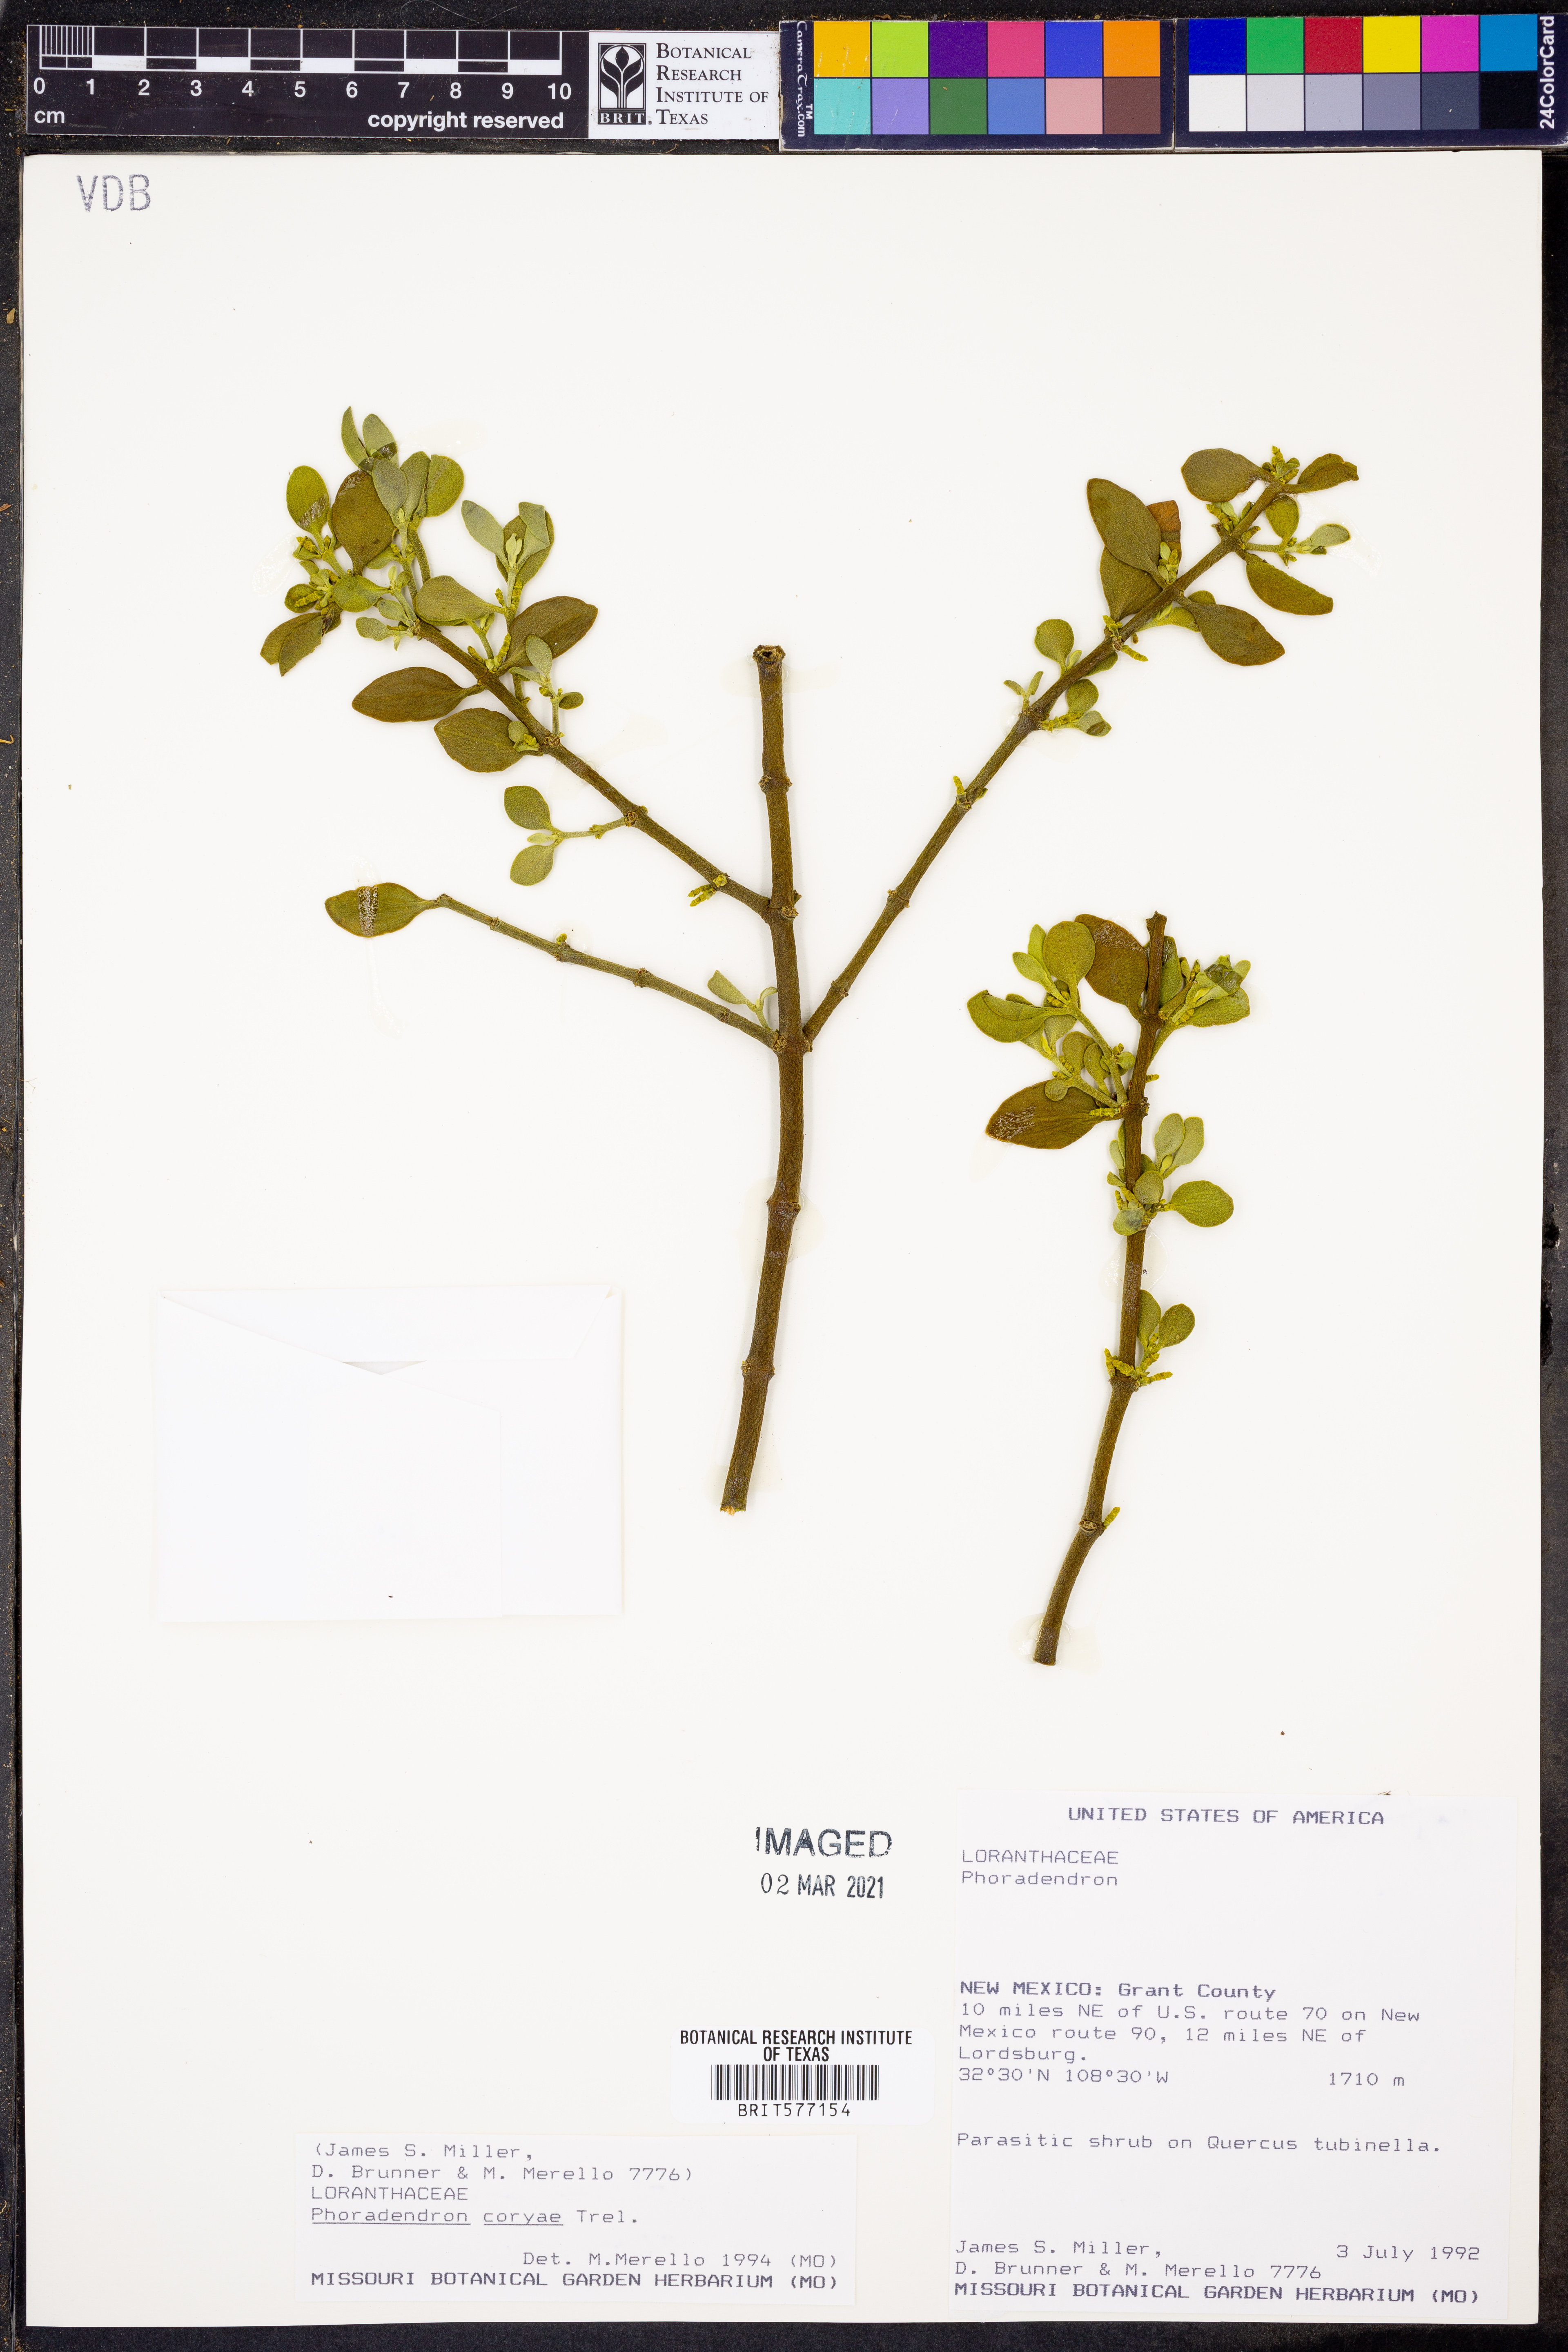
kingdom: Plantae
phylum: Tracheophyta
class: Magnoliopsida
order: Santalales
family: Viscaceae
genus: Phoradendron
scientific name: Phoradendron coryae
